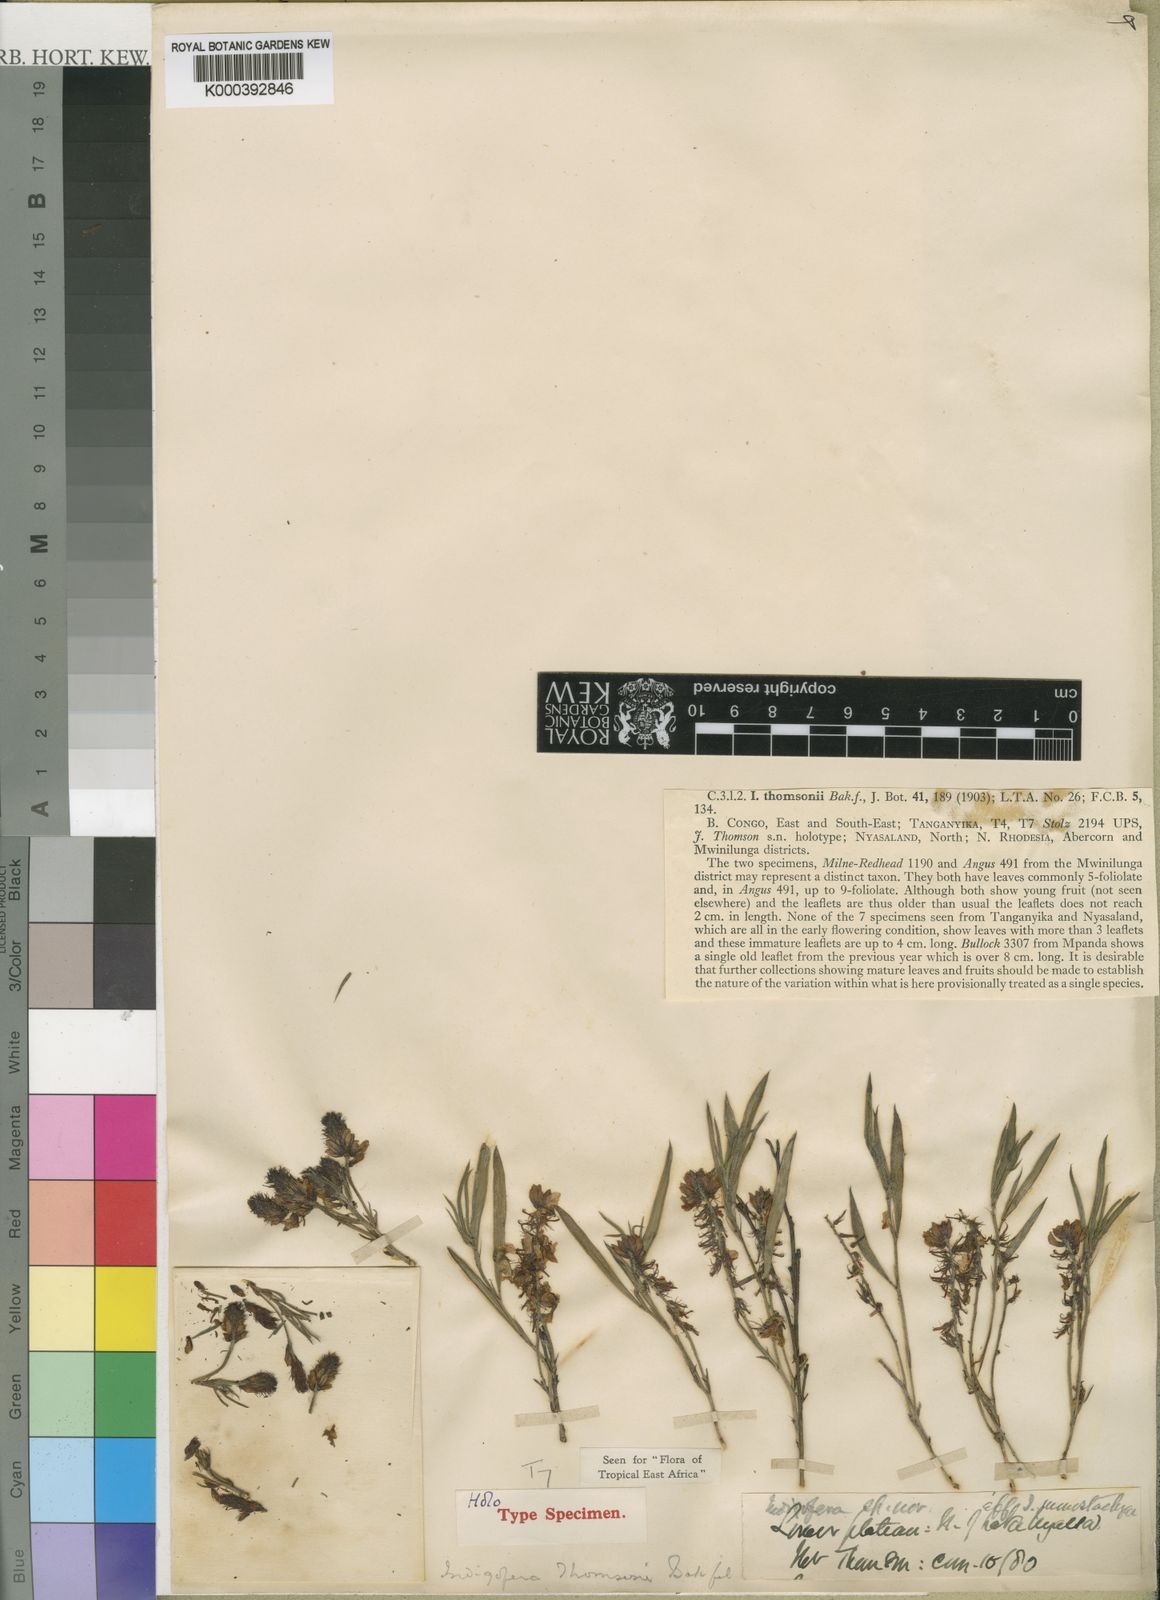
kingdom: Plantae
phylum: Tracheophyta
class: Magnoliopsida
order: Fabales
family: Fabaceae
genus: Indigofera
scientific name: Indigofera thomsonii
